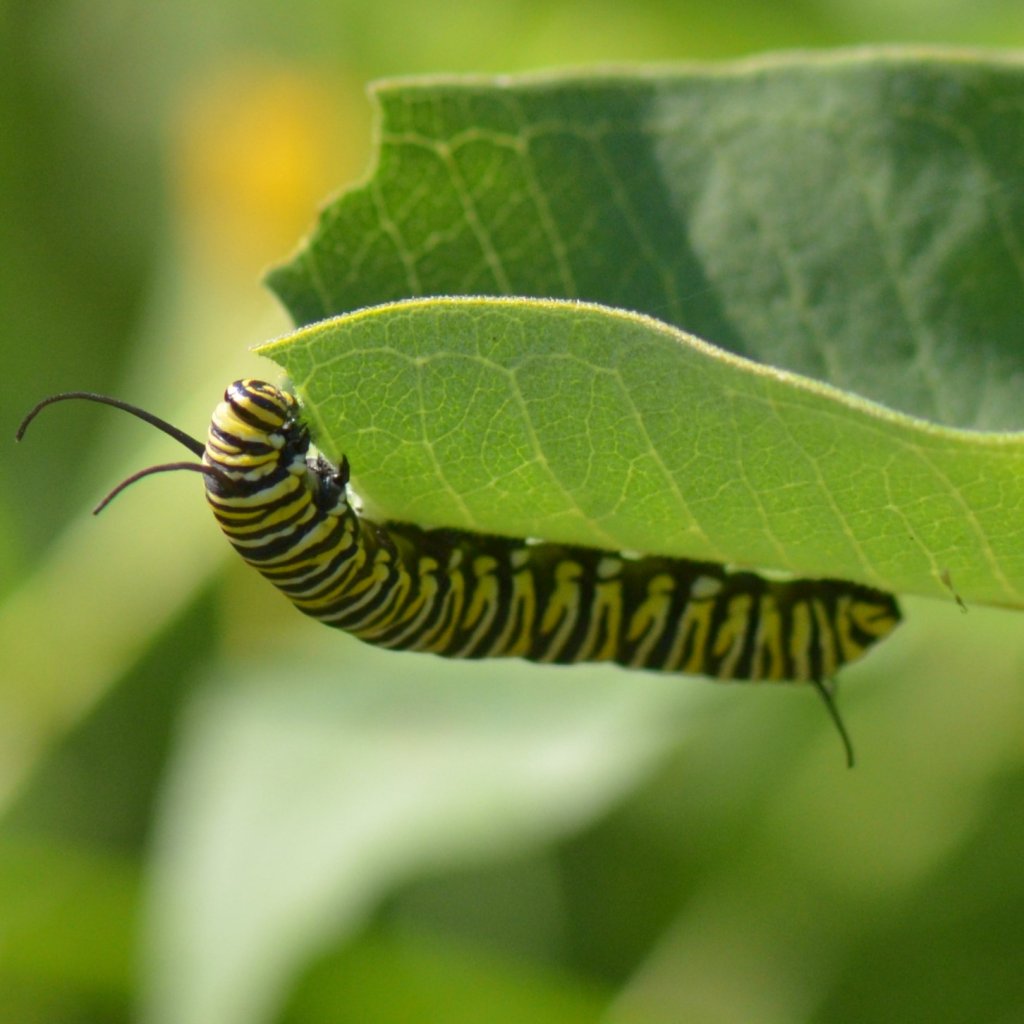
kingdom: Animalia
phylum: Arthropoda
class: Insecta
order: Lepidoptera
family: Nymphalidae
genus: Danaus
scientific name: Danaus plexippus
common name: Monarch
